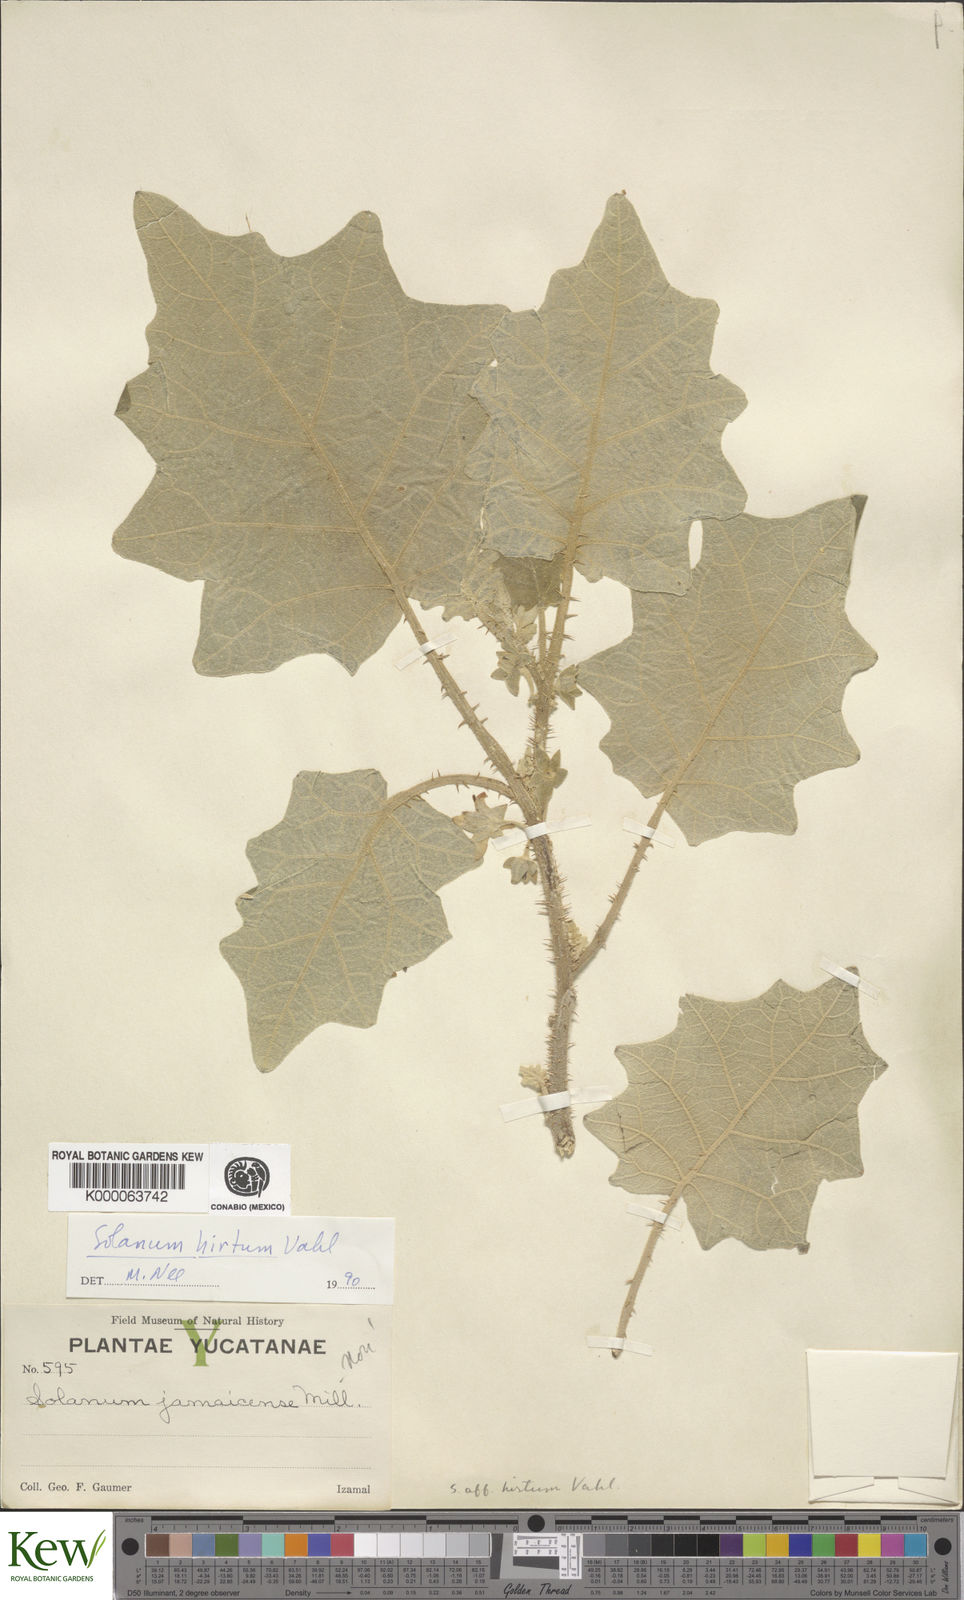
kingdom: Plantae
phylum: Tracheophyta
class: Magnoliopsida
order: Solanales
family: Solanaceae
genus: Solanum
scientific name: Solanum hirtum
